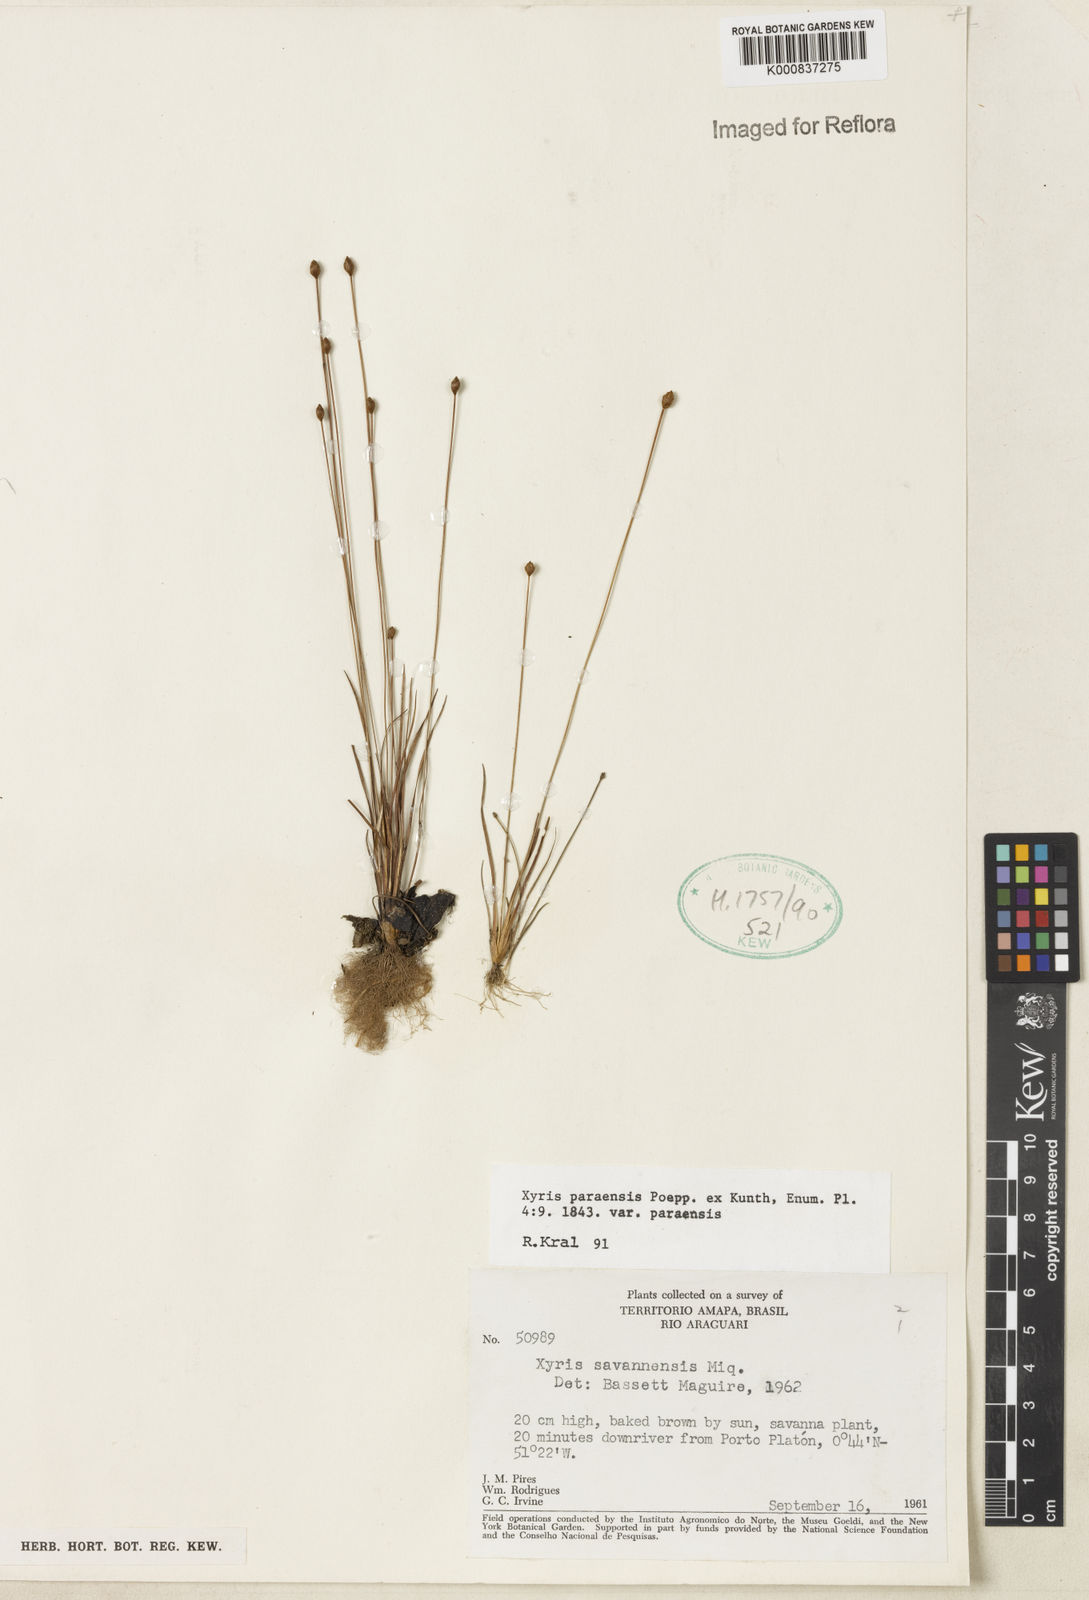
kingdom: Plantae
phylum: Tracheophyta
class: Liliopsida
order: Poales
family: Xyridaceae
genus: Xyris
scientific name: Xyris paraensis
